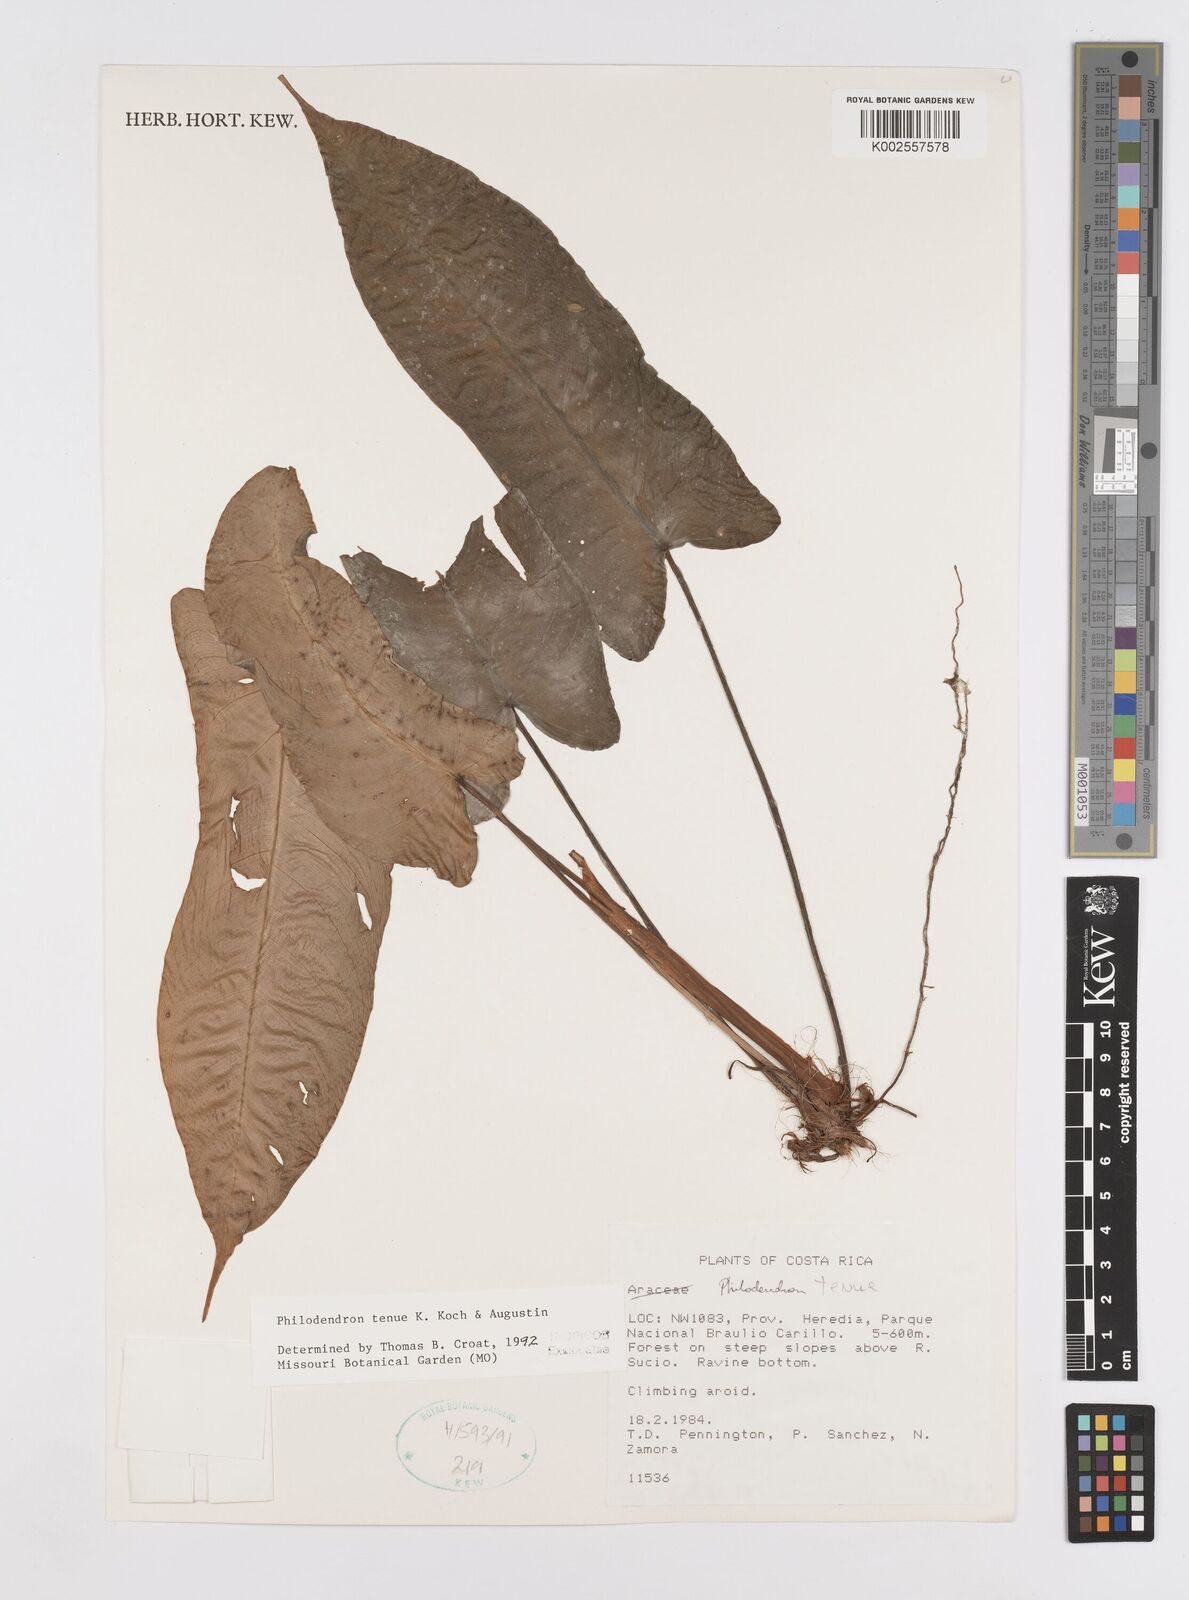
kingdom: Plantae
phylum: Tracheophyta
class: Liliopsida
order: Alismatales
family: Araceae
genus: Philodendron
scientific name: Philodendron tenue
